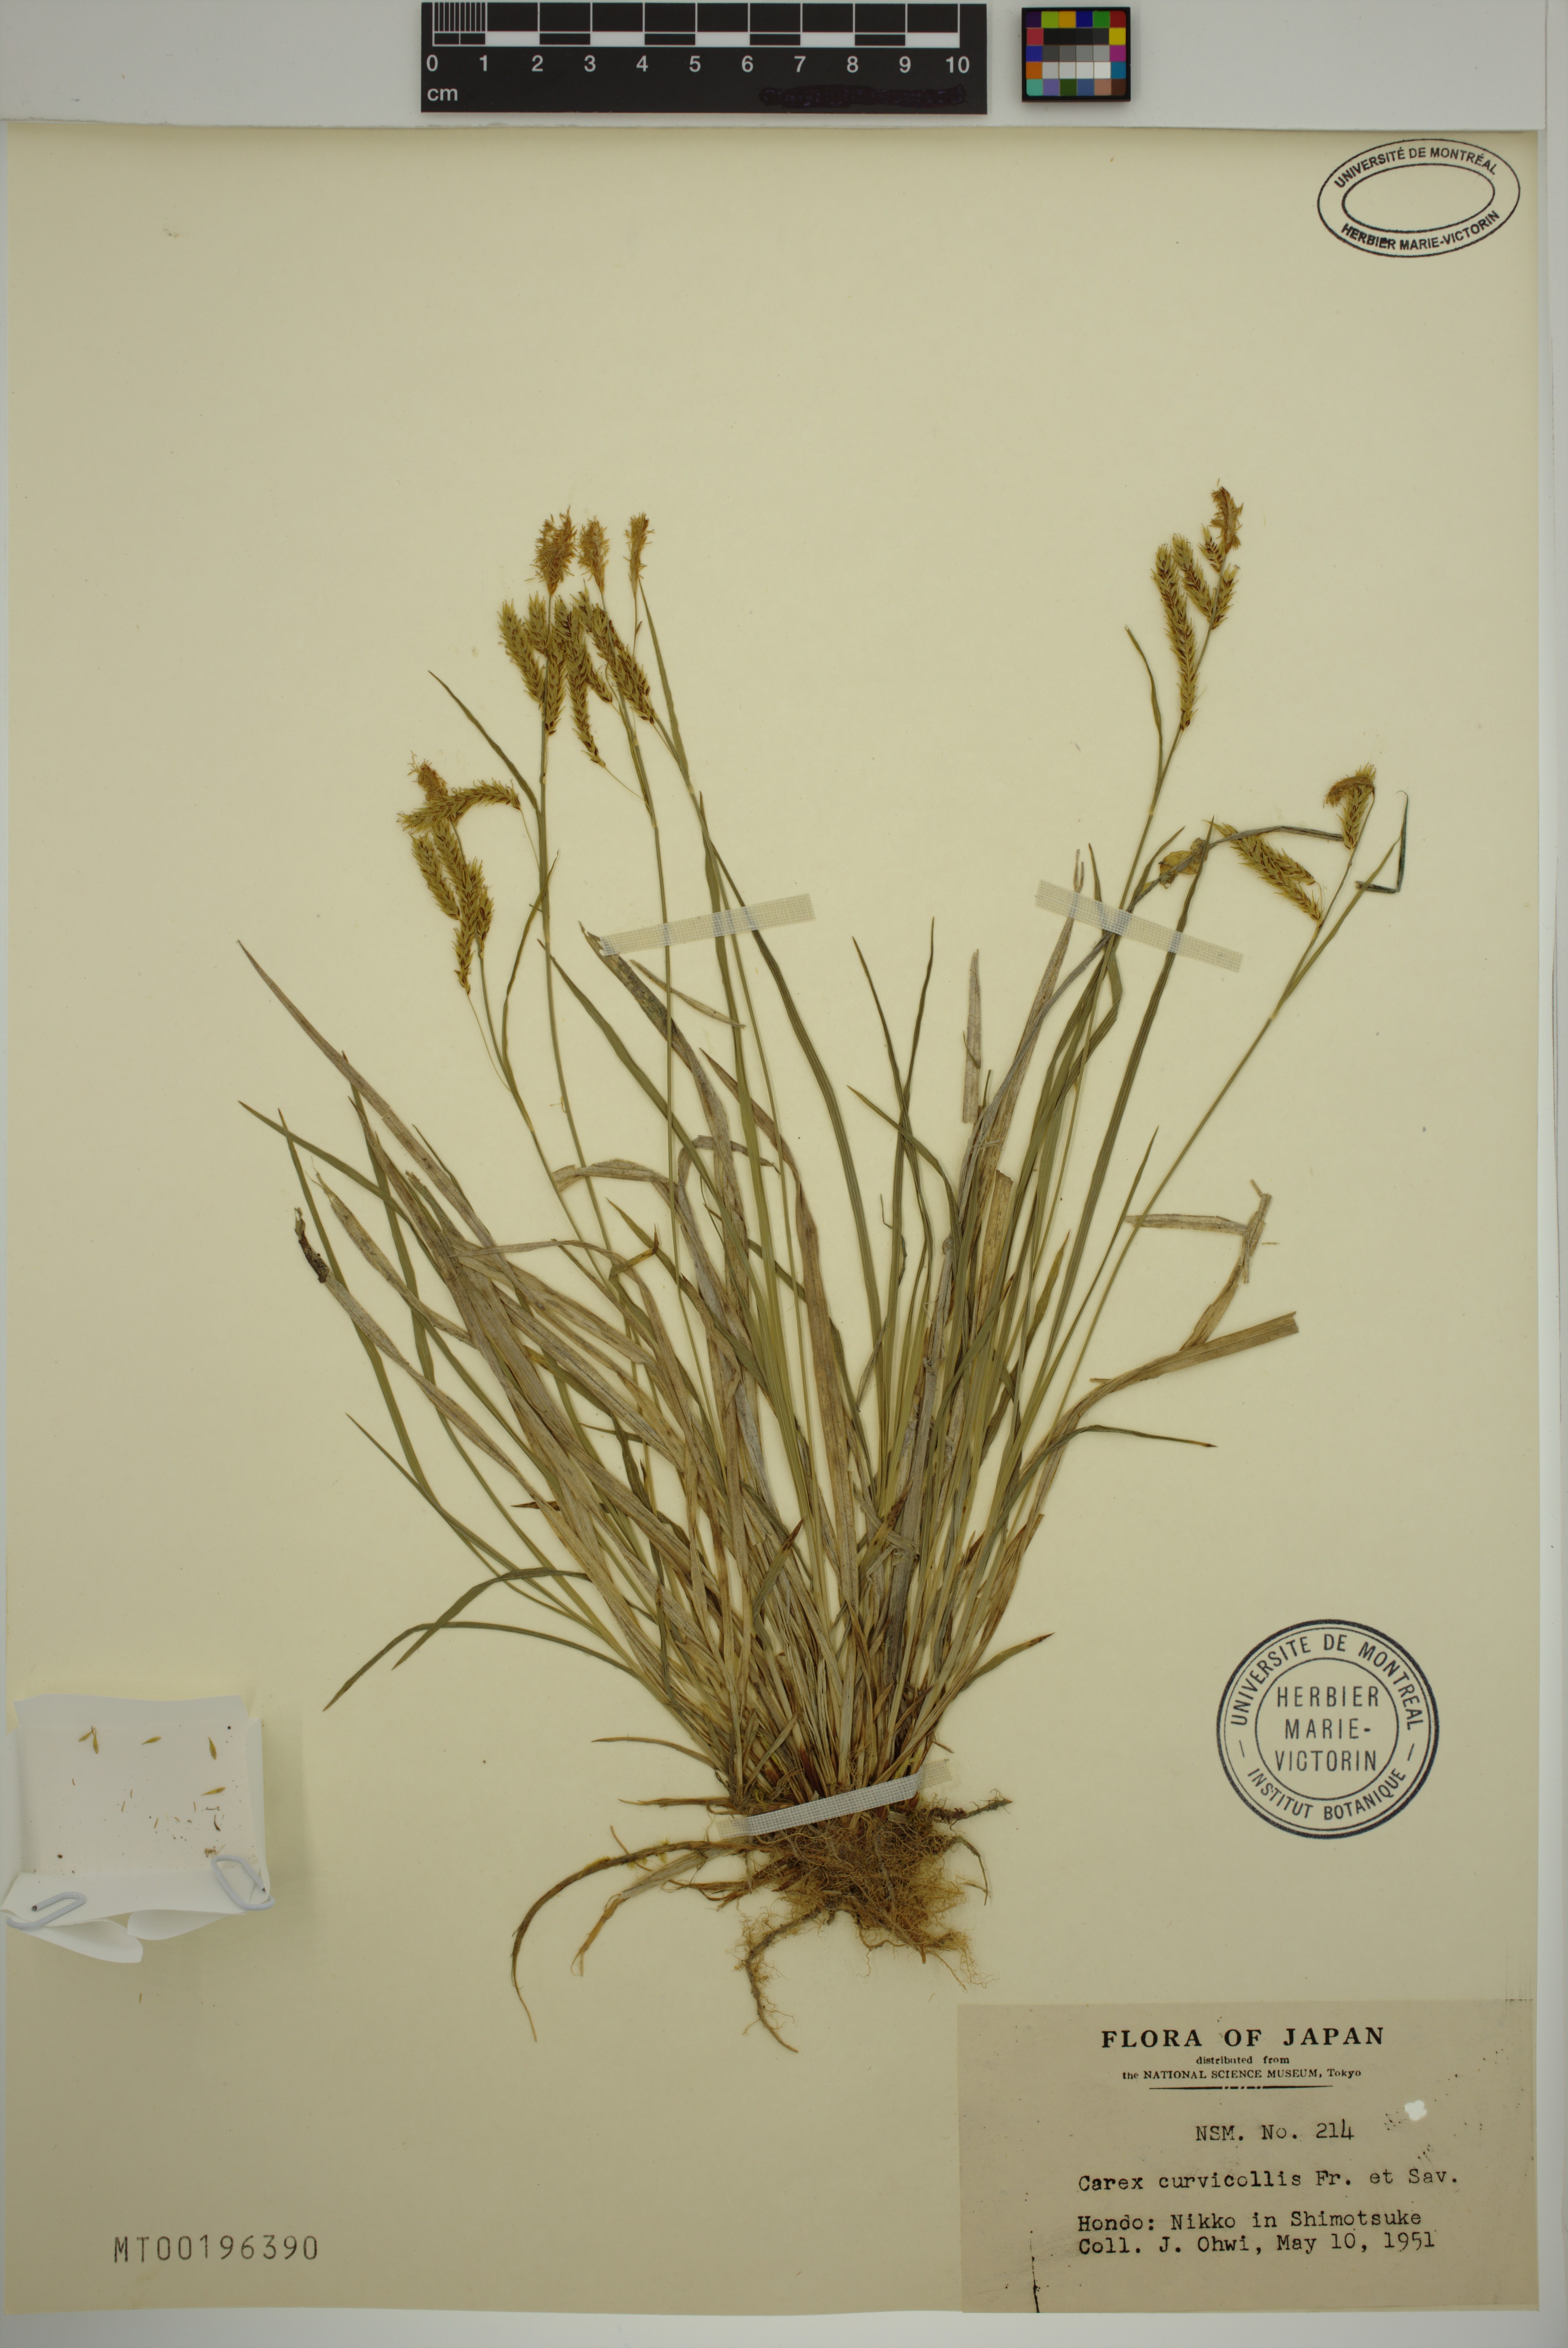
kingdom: Plantae
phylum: Tracheophyta
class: Liliopsida
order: Poales
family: Cyperaceae
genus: Carex
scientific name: Carex curvicollis
